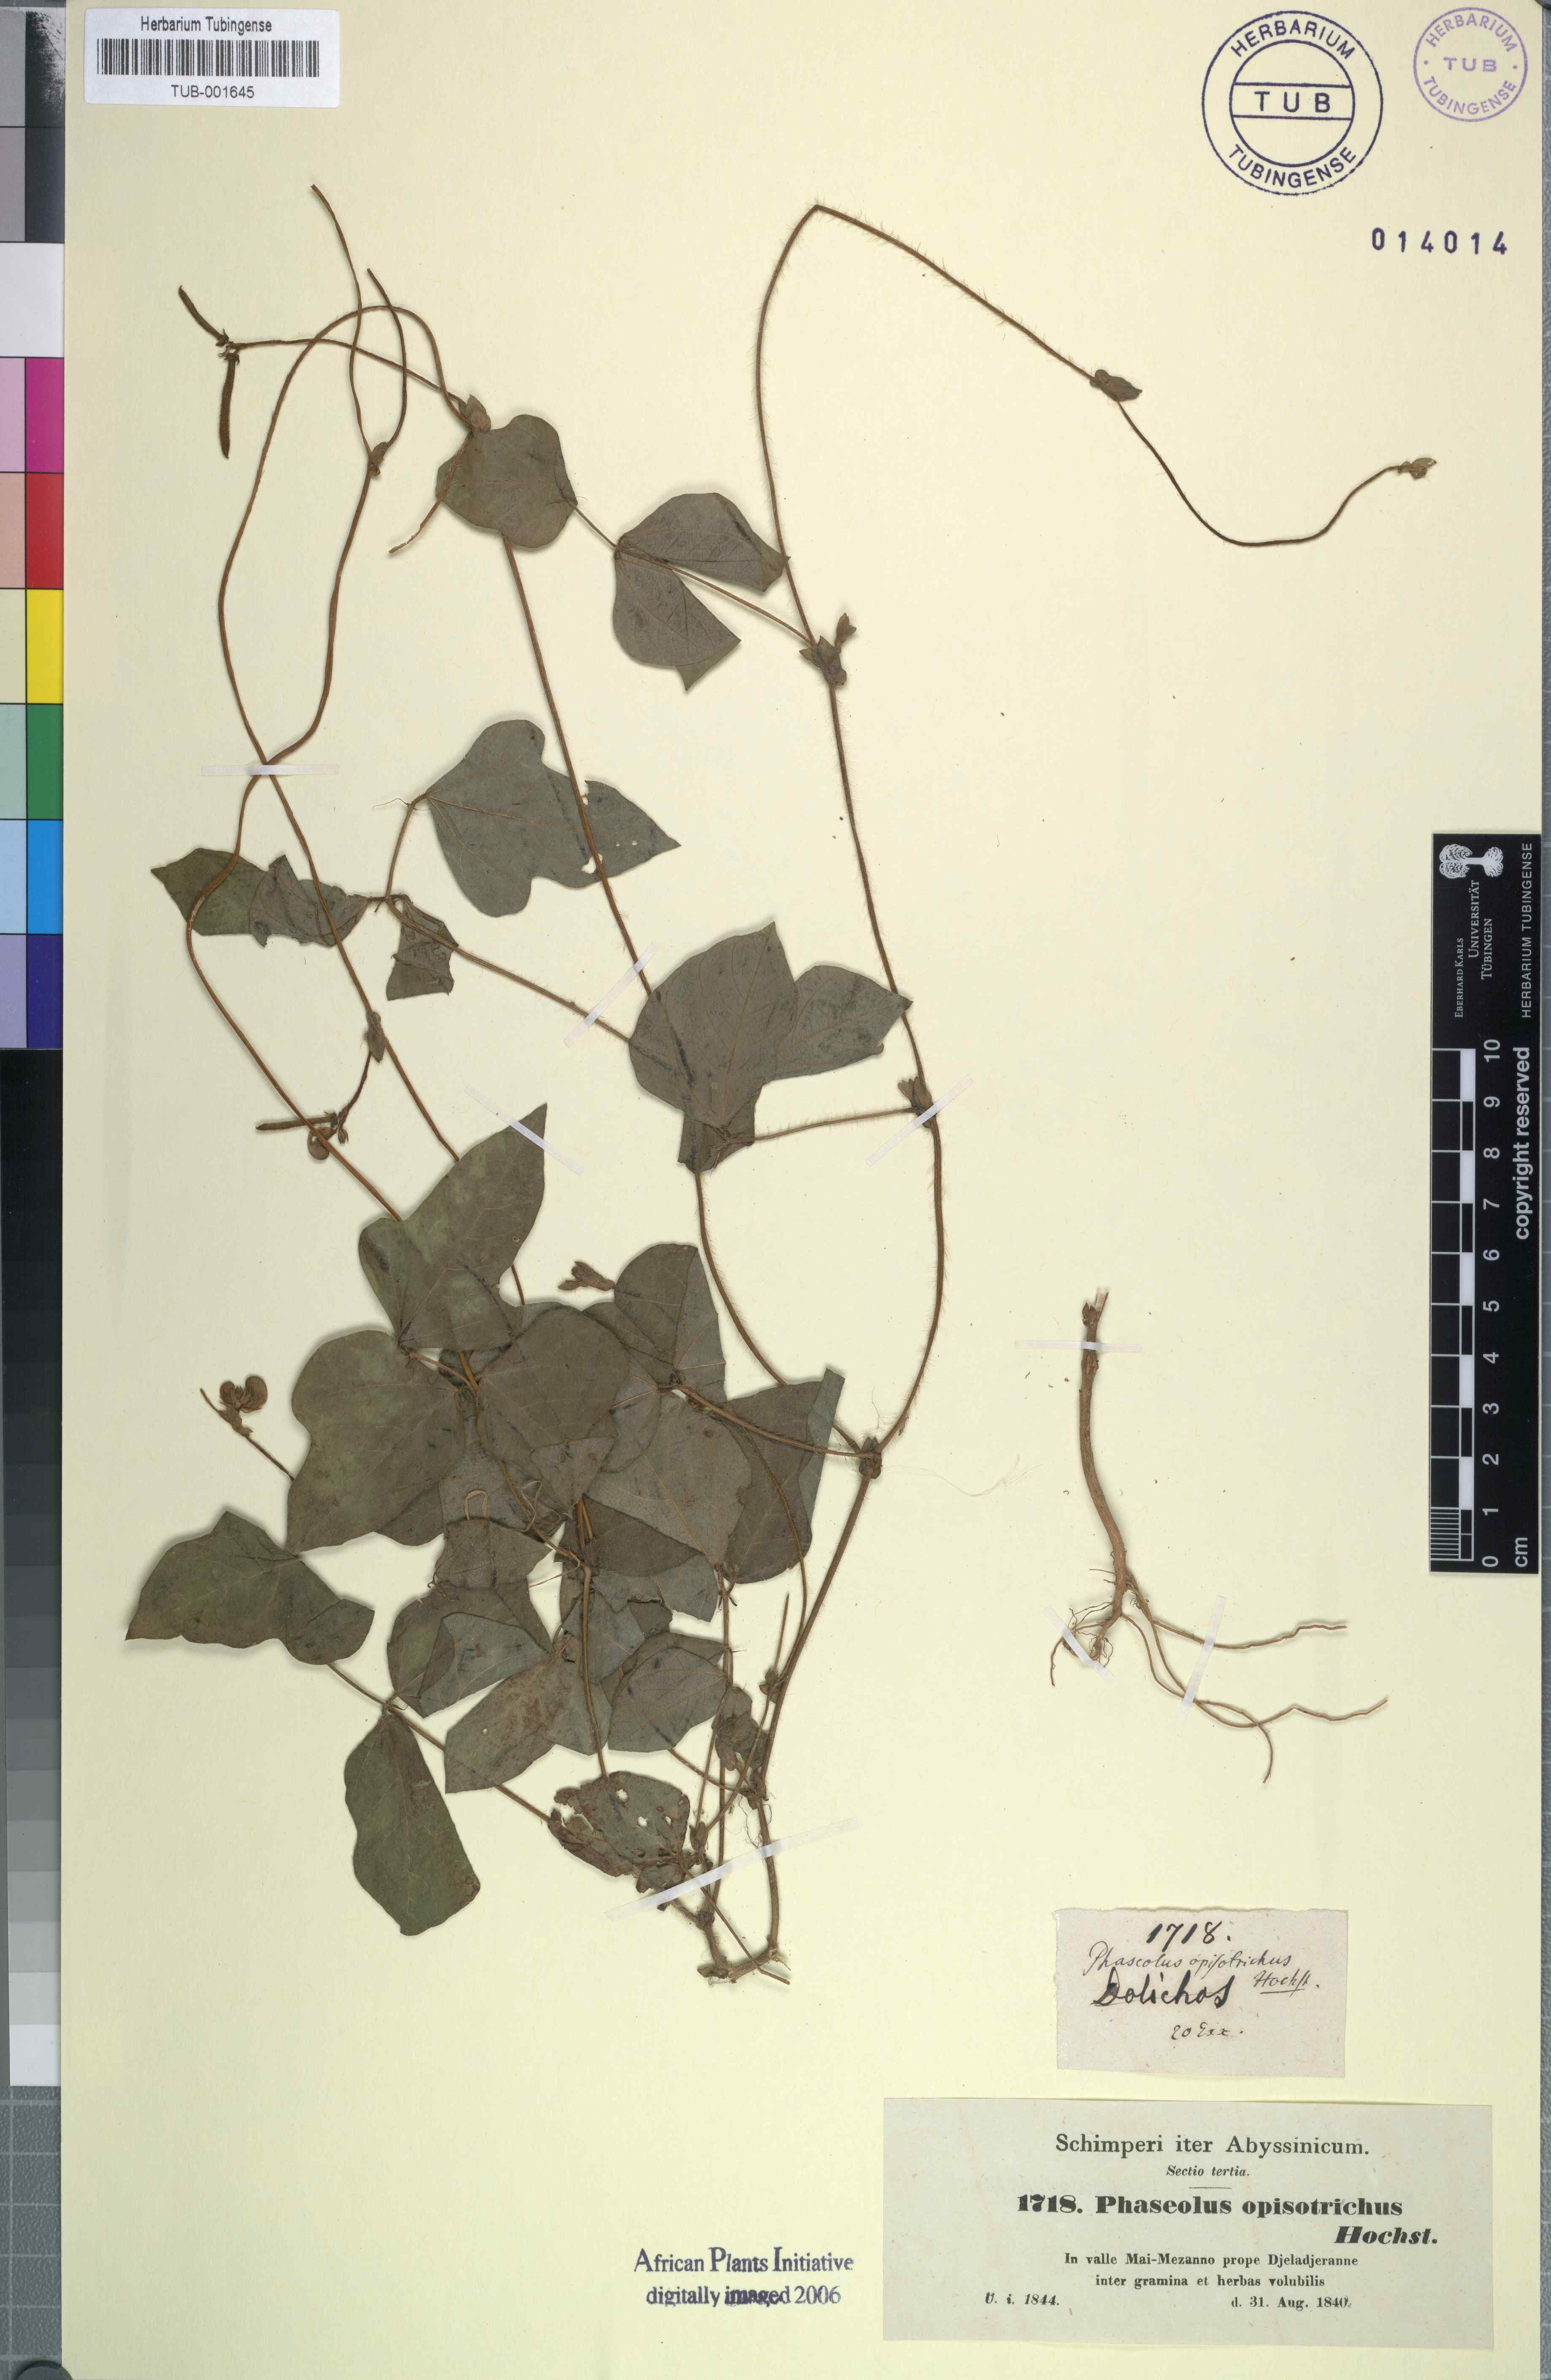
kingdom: Plantae
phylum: Tracheophyta
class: Magnoliopsida
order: Fabales
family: Fabaceae
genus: Vigna
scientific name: Vigna angularis
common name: Adzuki bean
